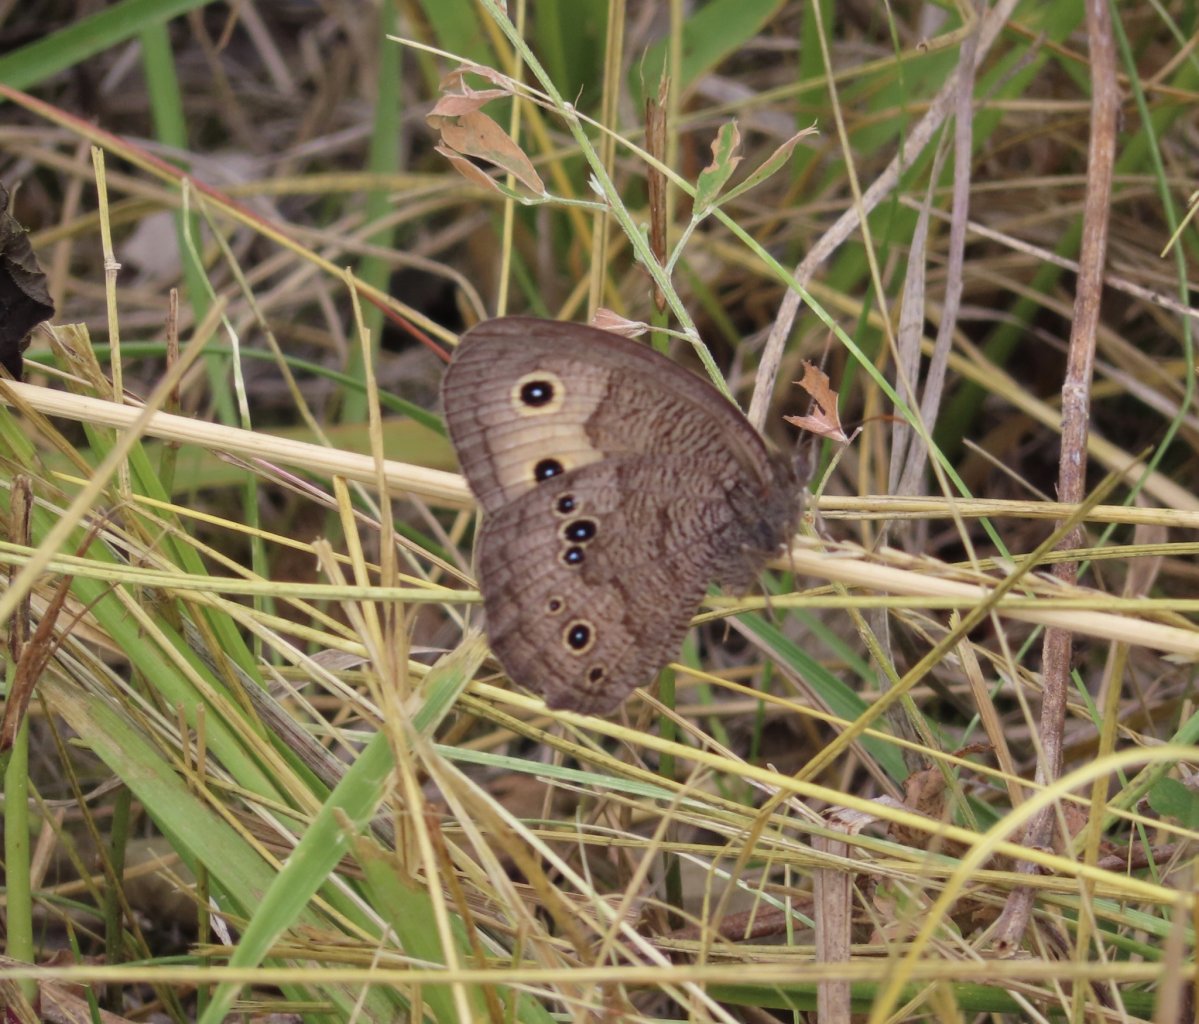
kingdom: Animalia
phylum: Arthropoda
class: Insecta
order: Lepidoptera
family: Nymphalidae
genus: Cercyonis
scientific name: Cercyonis pegala
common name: Common Wood-Nymph
